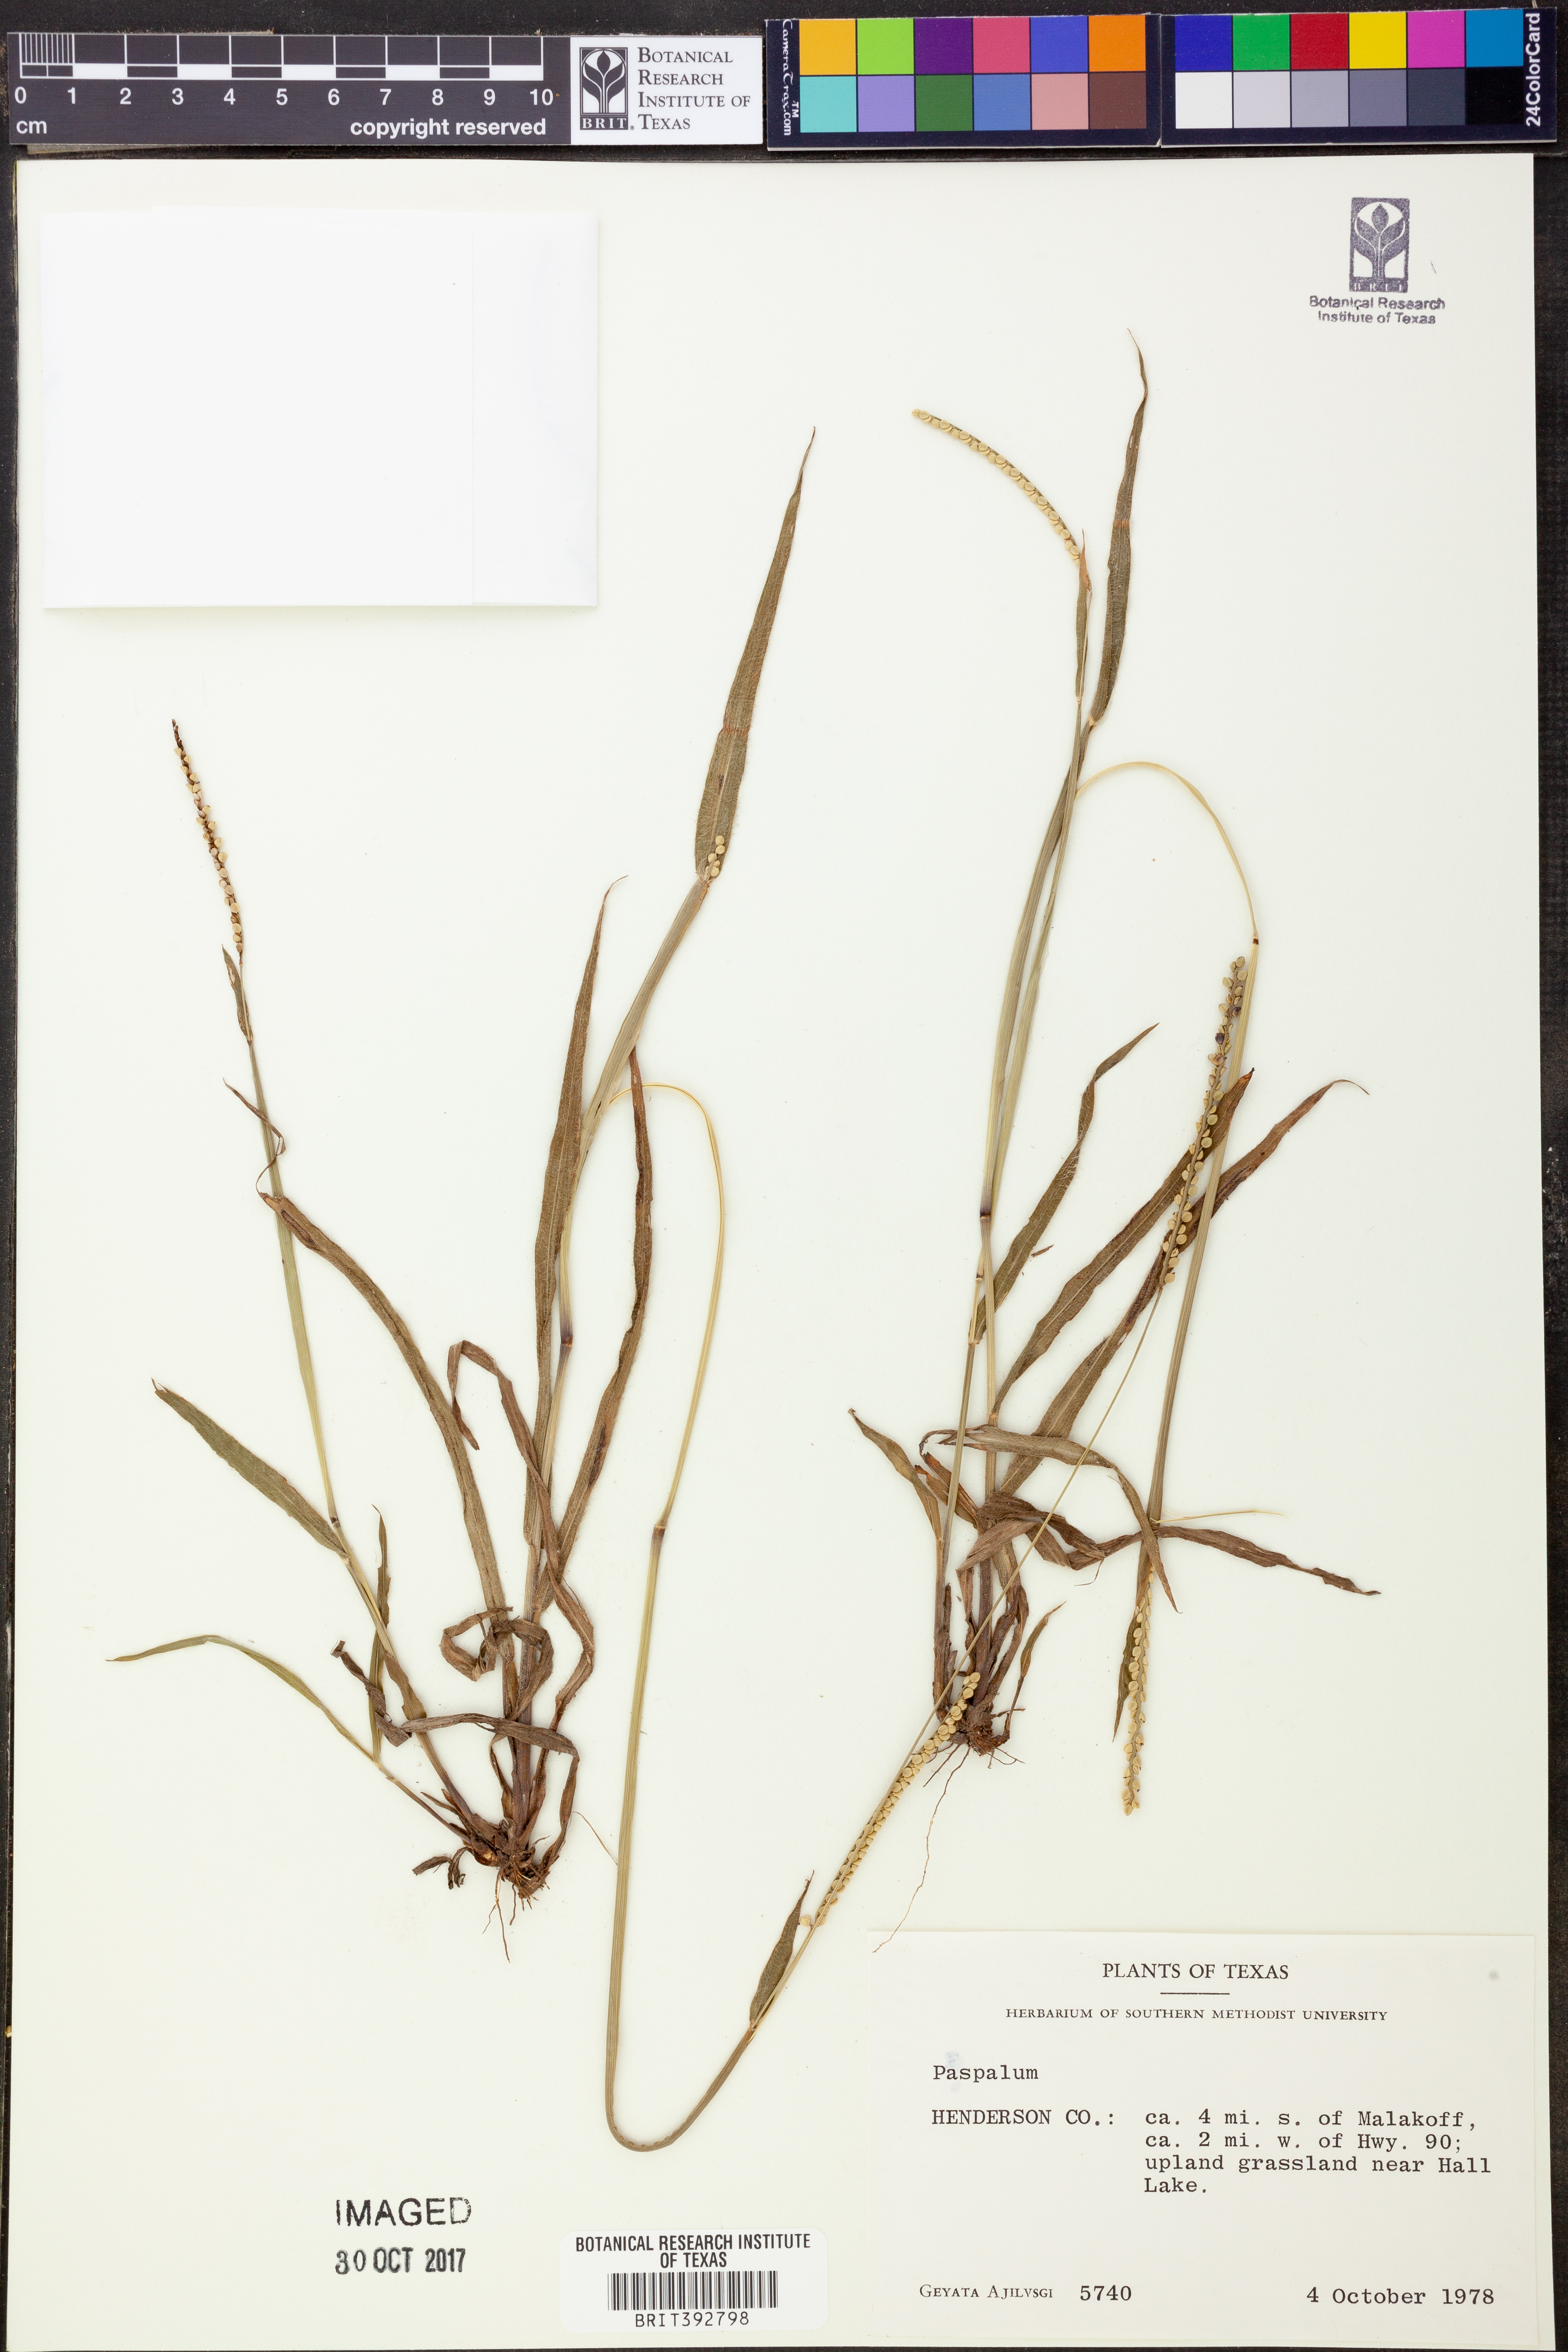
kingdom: Plantae
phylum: Tracheophyta
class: Liliopsida
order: Poales
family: Poaceae
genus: Paspalum
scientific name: Paspalum
